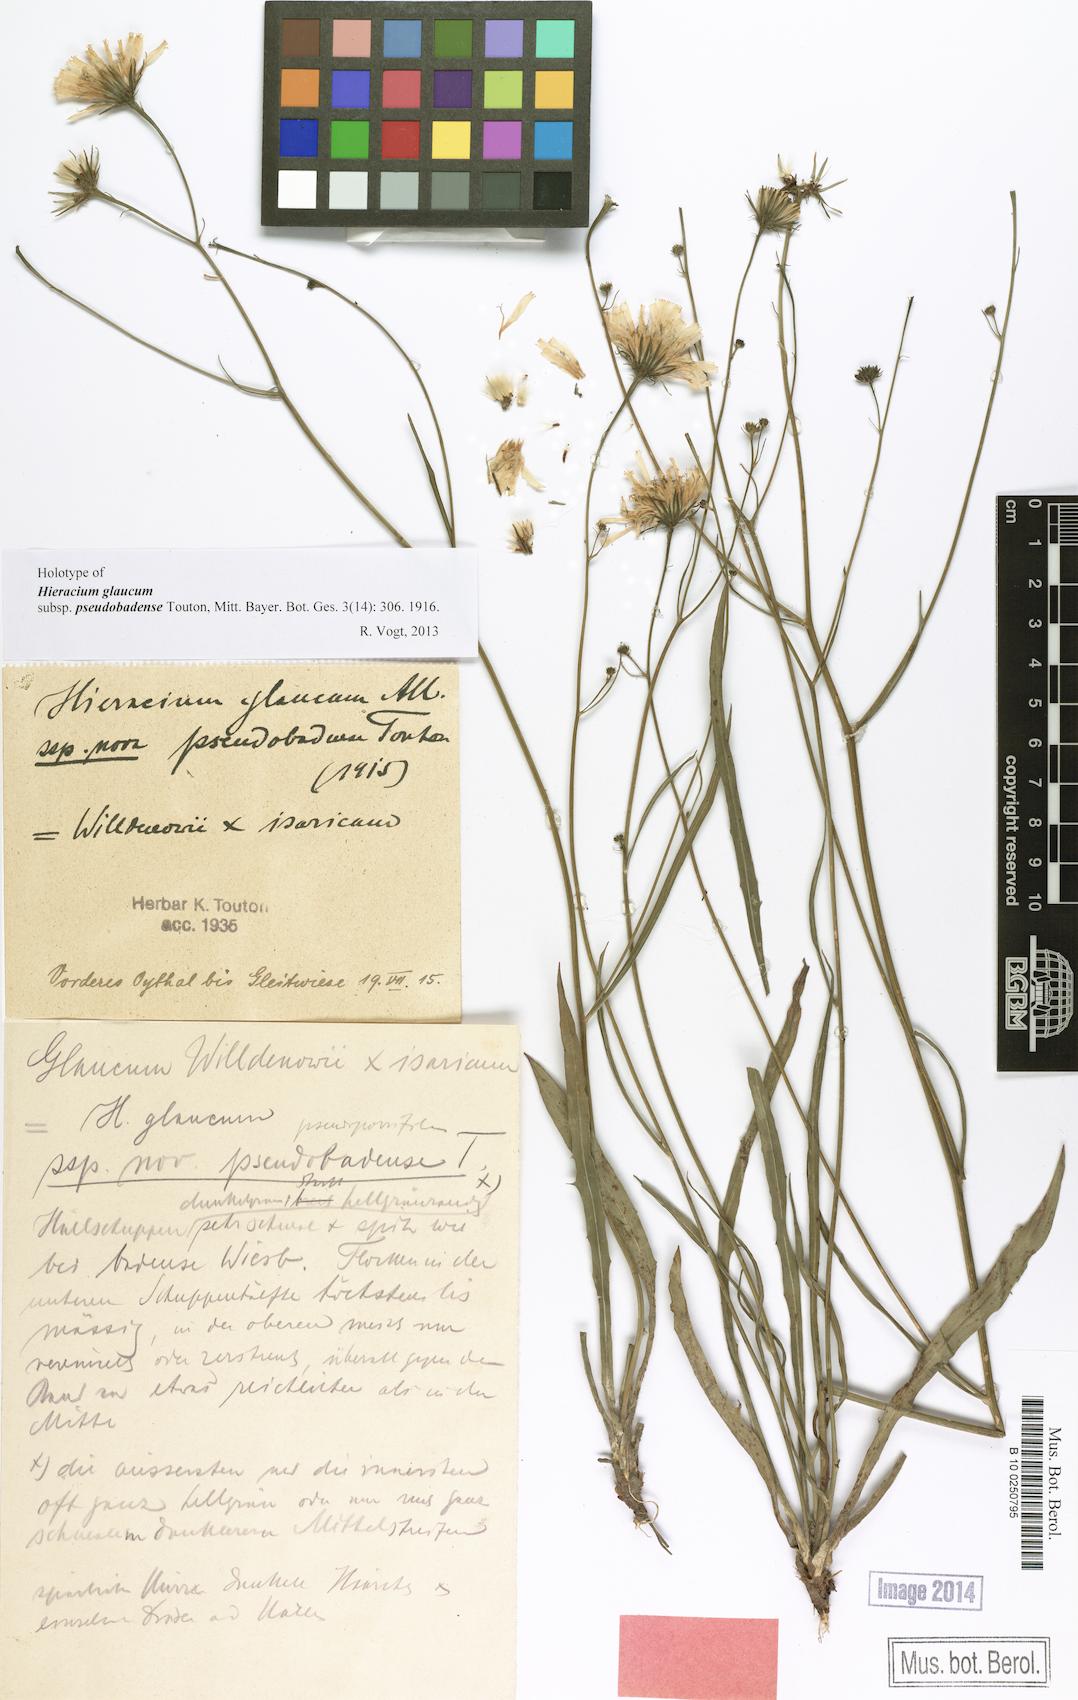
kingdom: Plantae
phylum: Tracheophyta
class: Magnoliopsida
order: Asterales
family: Asteraceae
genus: Hieracium
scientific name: Hieracium glaucum
